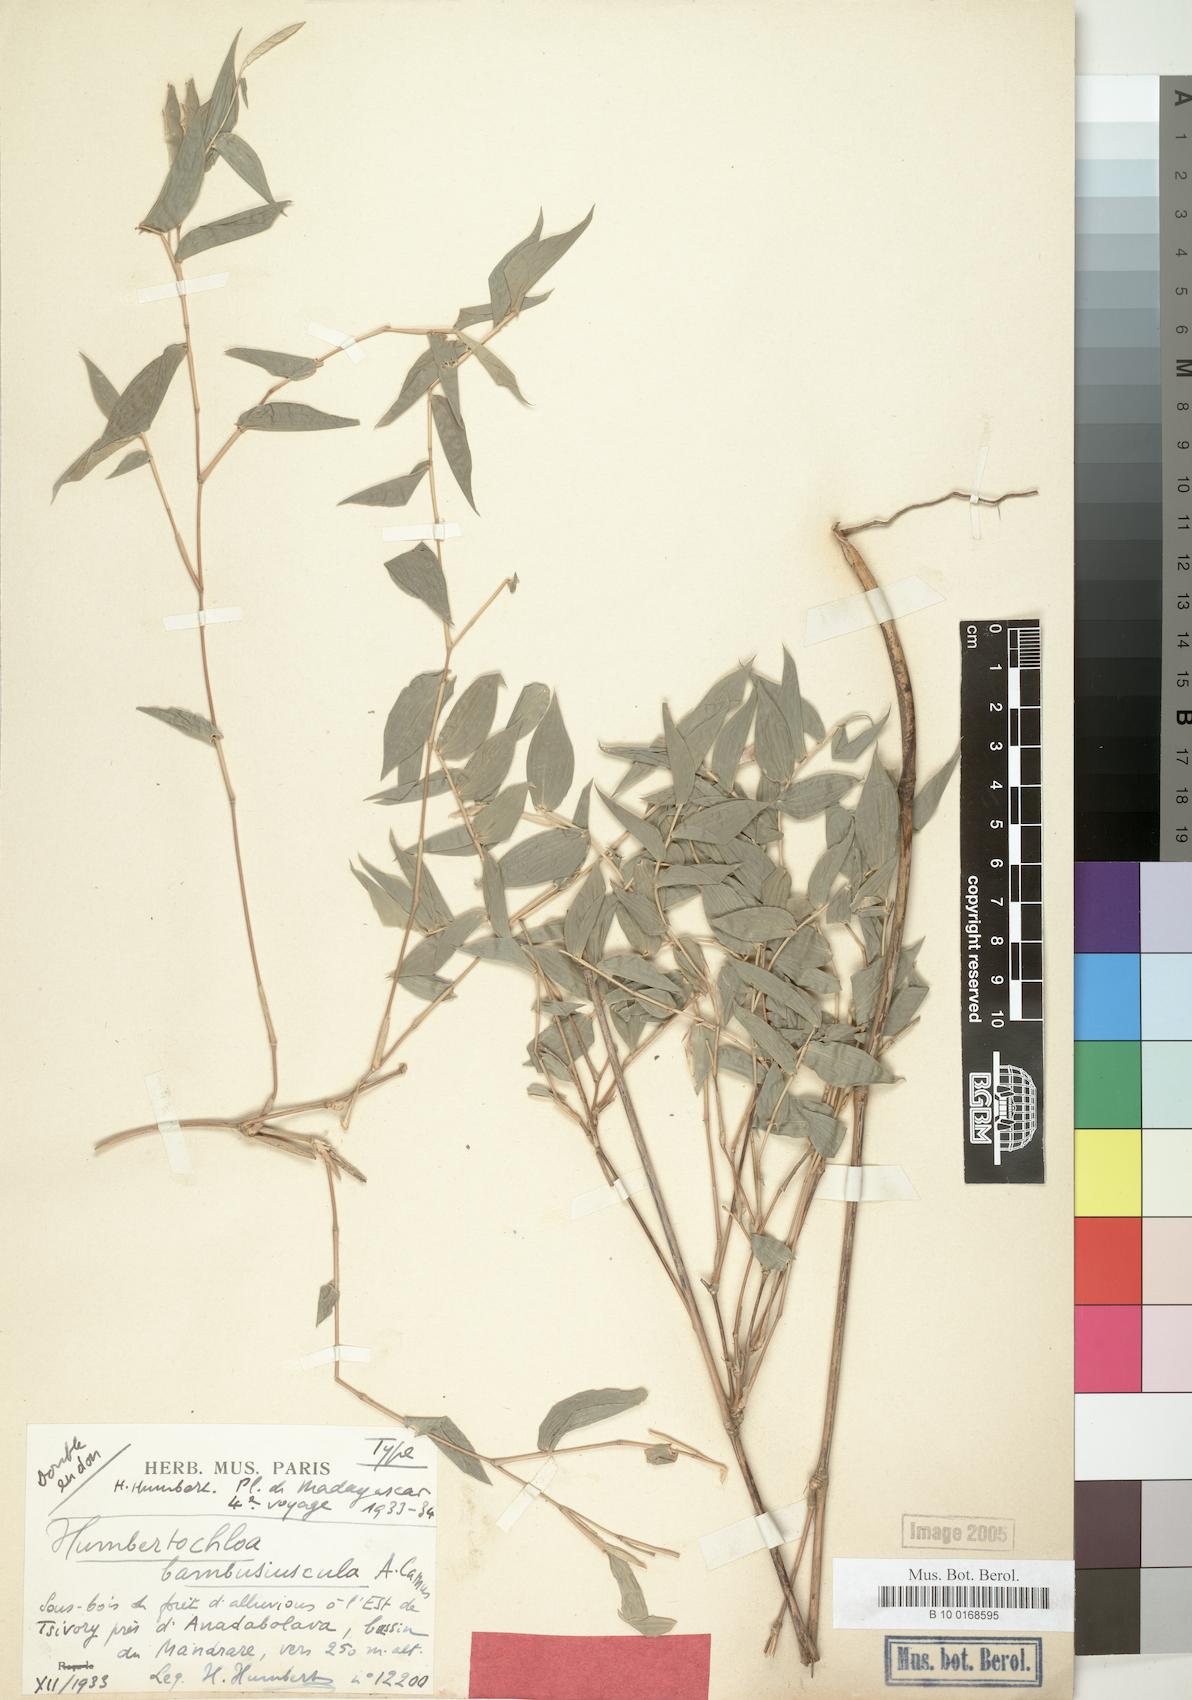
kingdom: Plantae
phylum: Tracheophyta
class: Liliopsida
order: Poales
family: Poaceae
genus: Humbertochloa
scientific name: Humbertochloa bambusiuscula
